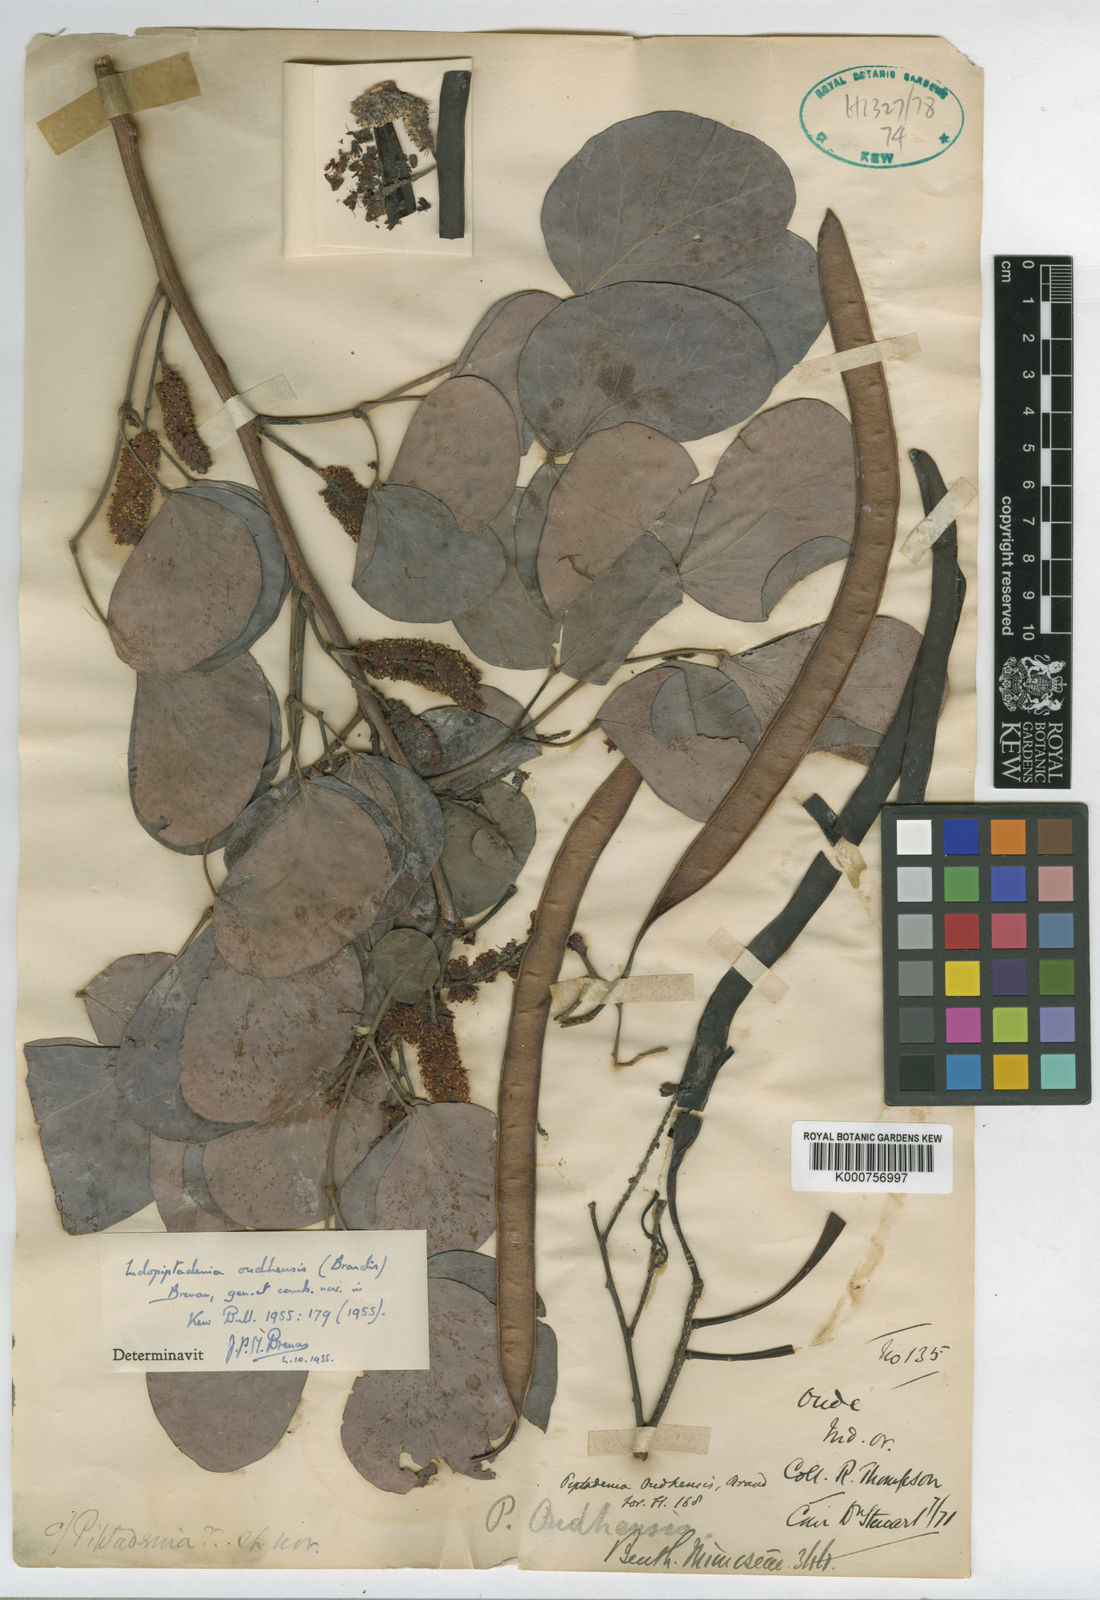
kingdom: Plantae
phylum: Tracheophyta
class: Magnoliopsida
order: Fabales
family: Fabaceae
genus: Indopiptadenia
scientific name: Indopiptadenia oudhensis
